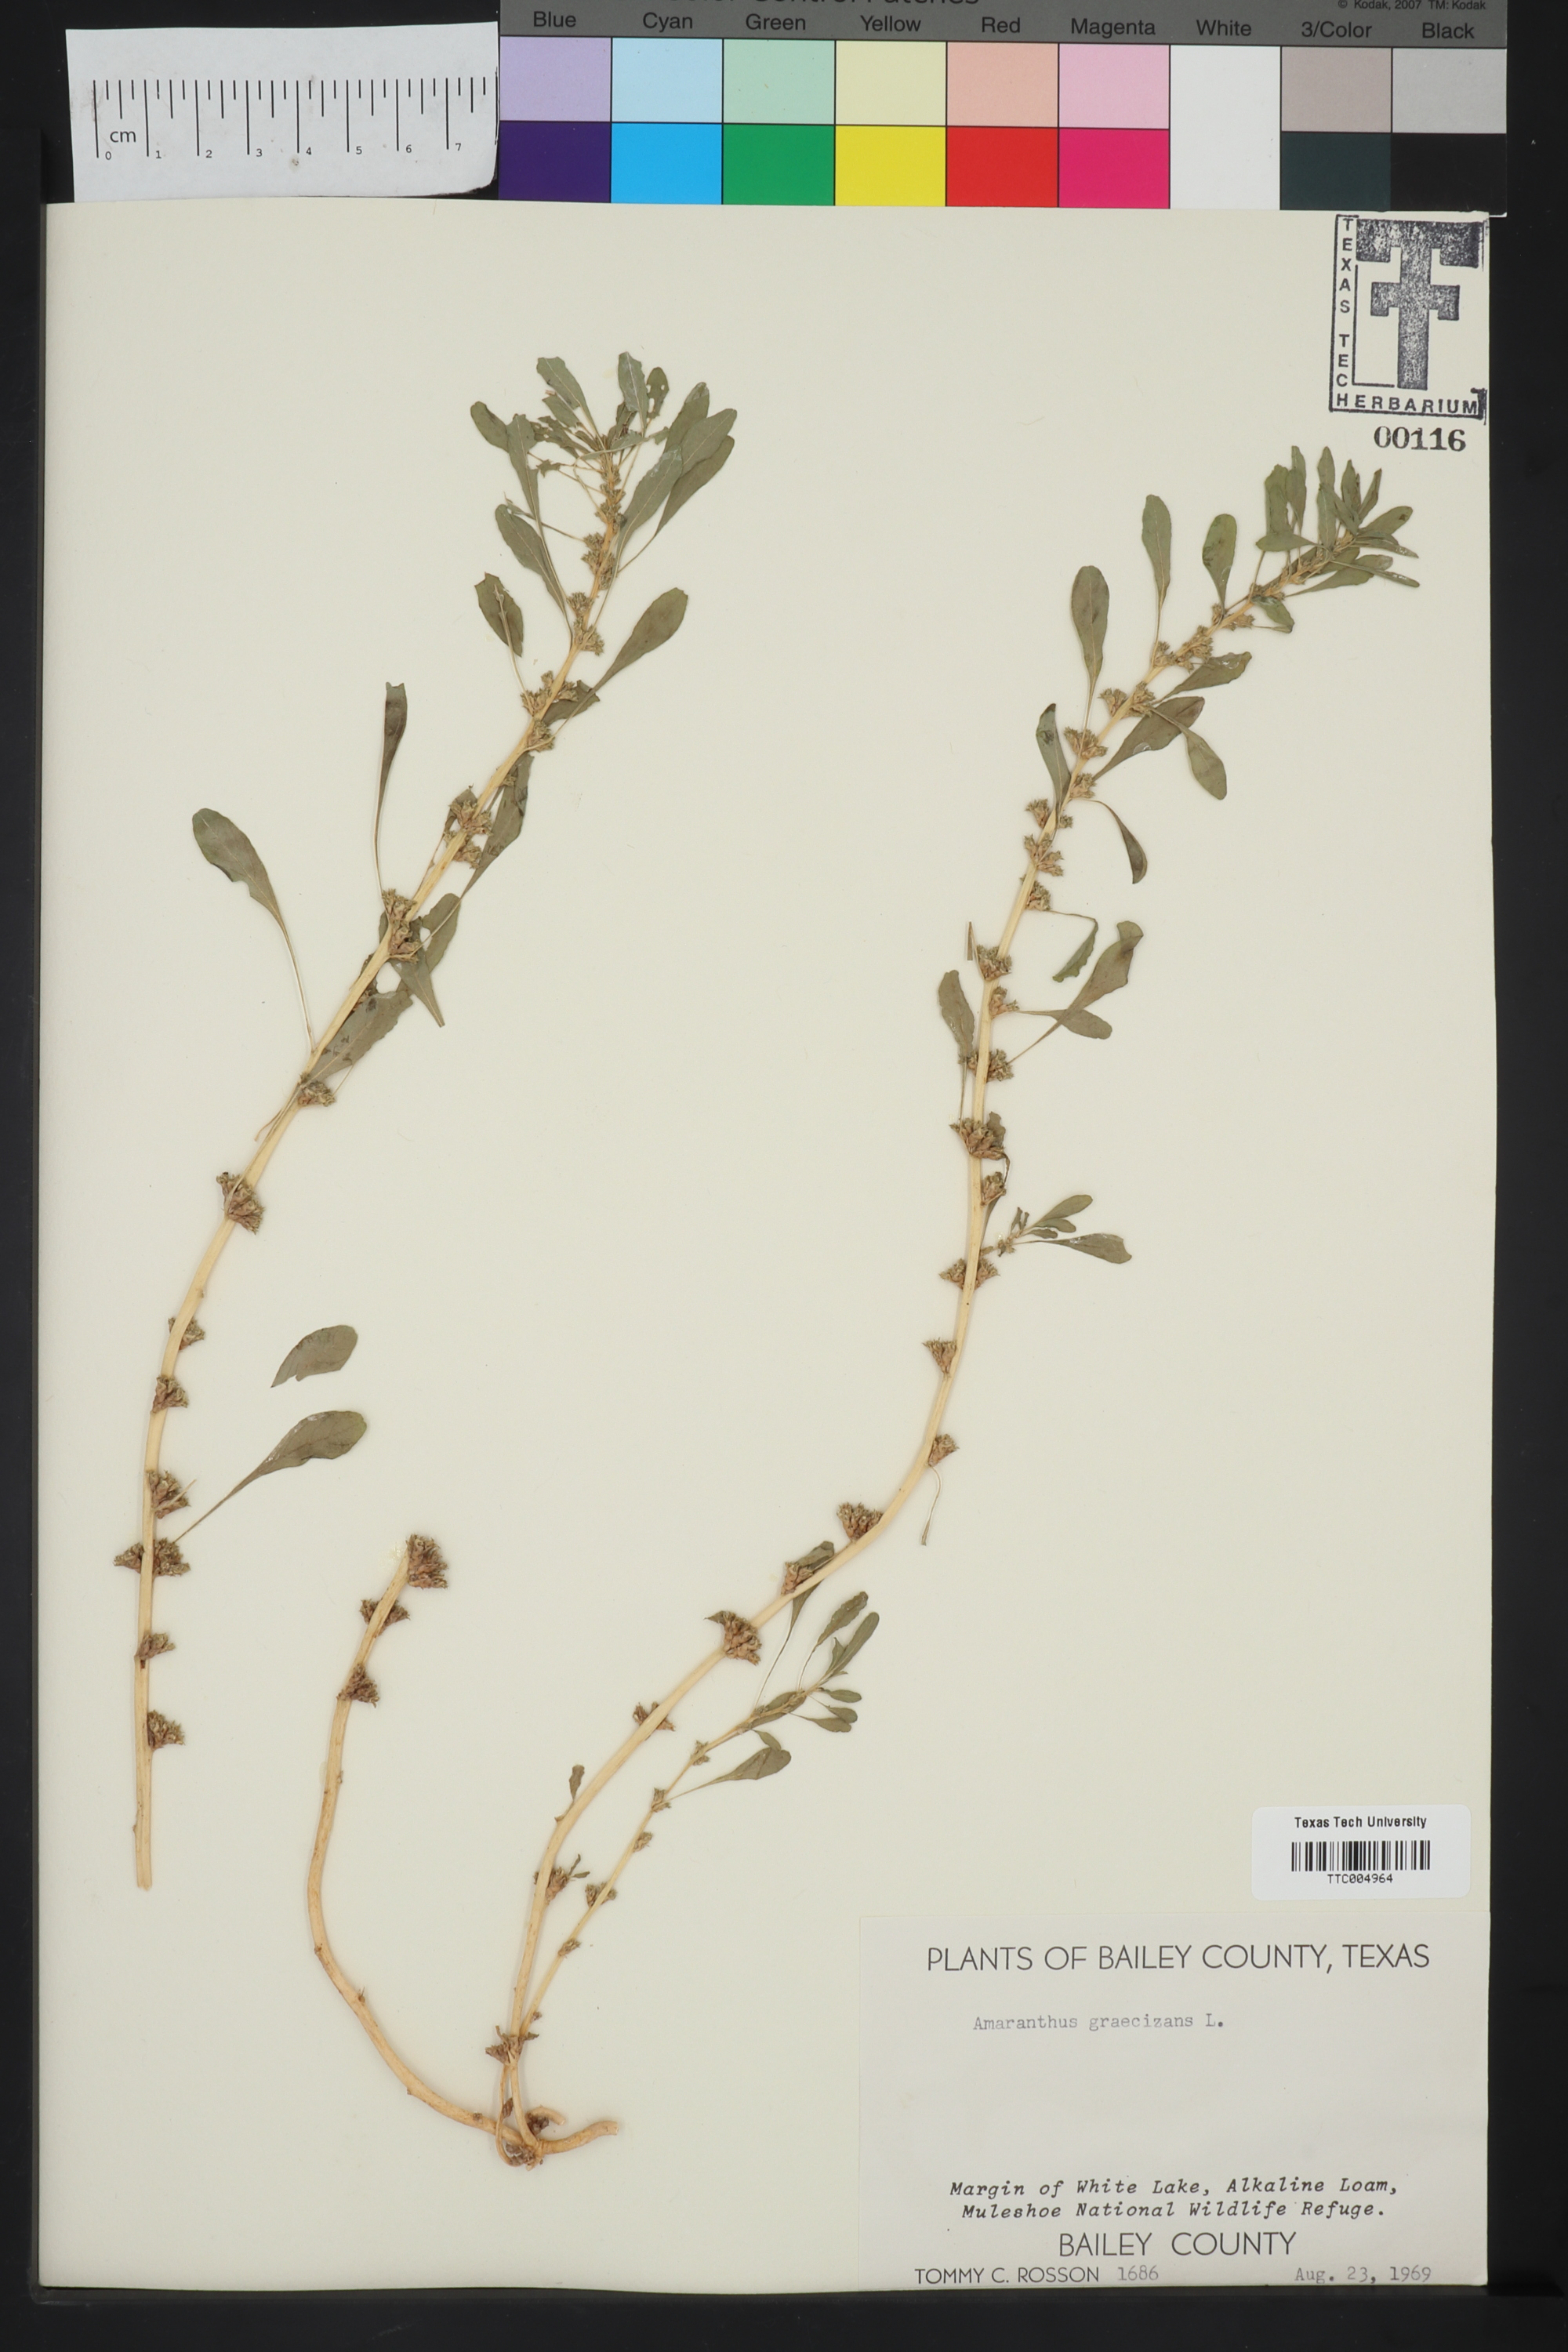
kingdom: Plantae
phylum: Tracheophyta
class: Magnoliopsida
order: Caryophyllales
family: Amaranthaceae
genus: Amaranthus
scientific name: Amaranthus graecizans
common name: Mediterranean amaranth
